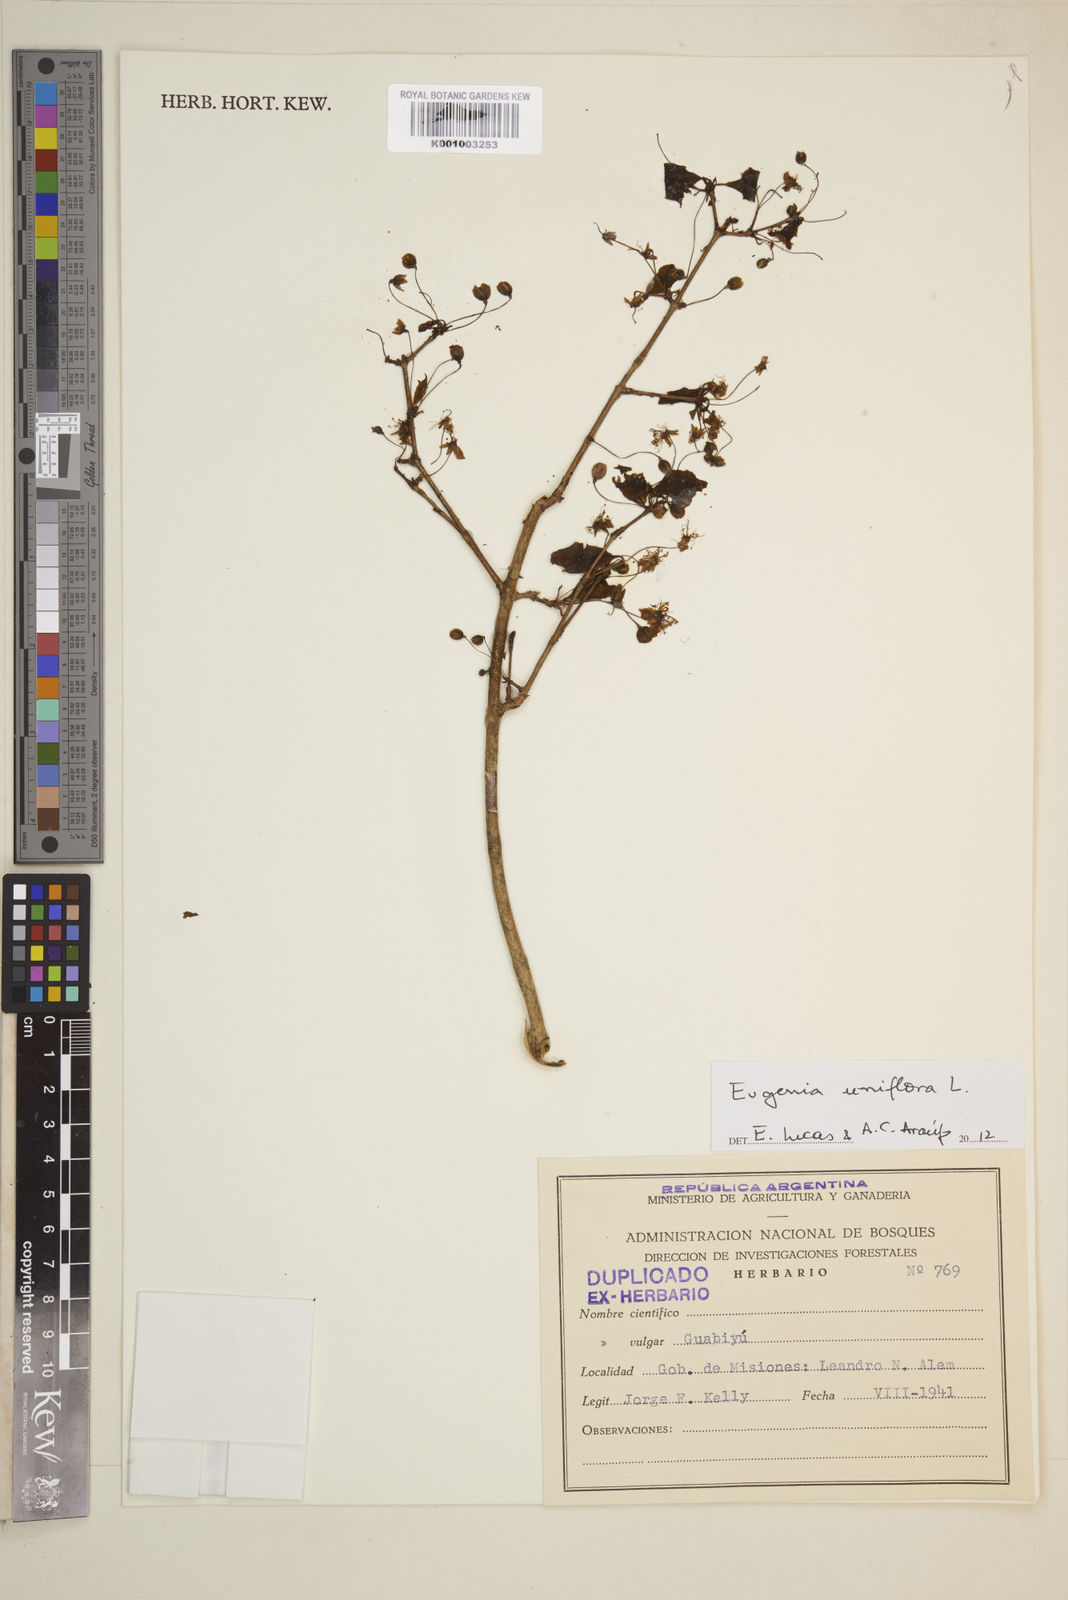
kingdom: Plantae
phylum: Tracheophyta
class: Magnoliopsida
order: Myrtales
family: Myrtaceae
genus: Eugenia
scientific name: Eugenia uniflora
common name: Surinam cherry
